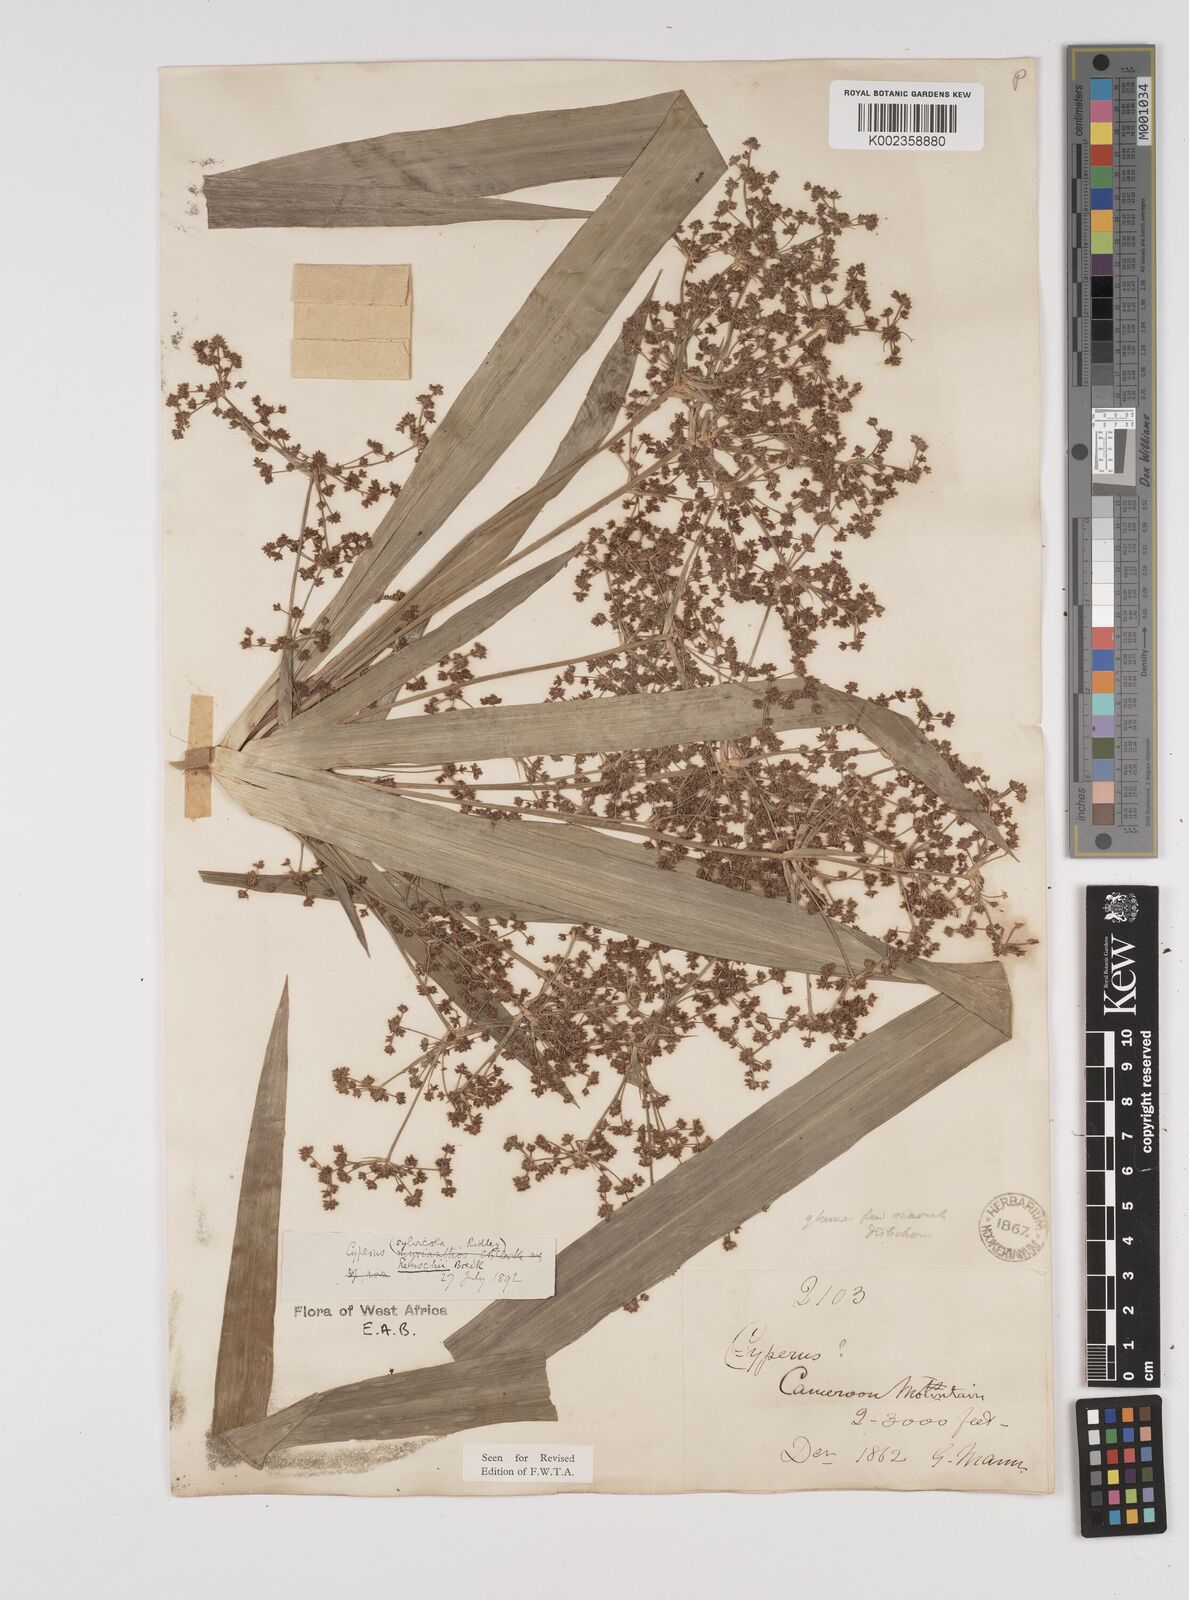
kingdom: Plantae
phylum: Tracheophyta
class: Liliopsida
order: Poales
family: Cyperaceae
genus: Cyperus
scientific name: Cyperus renschii
